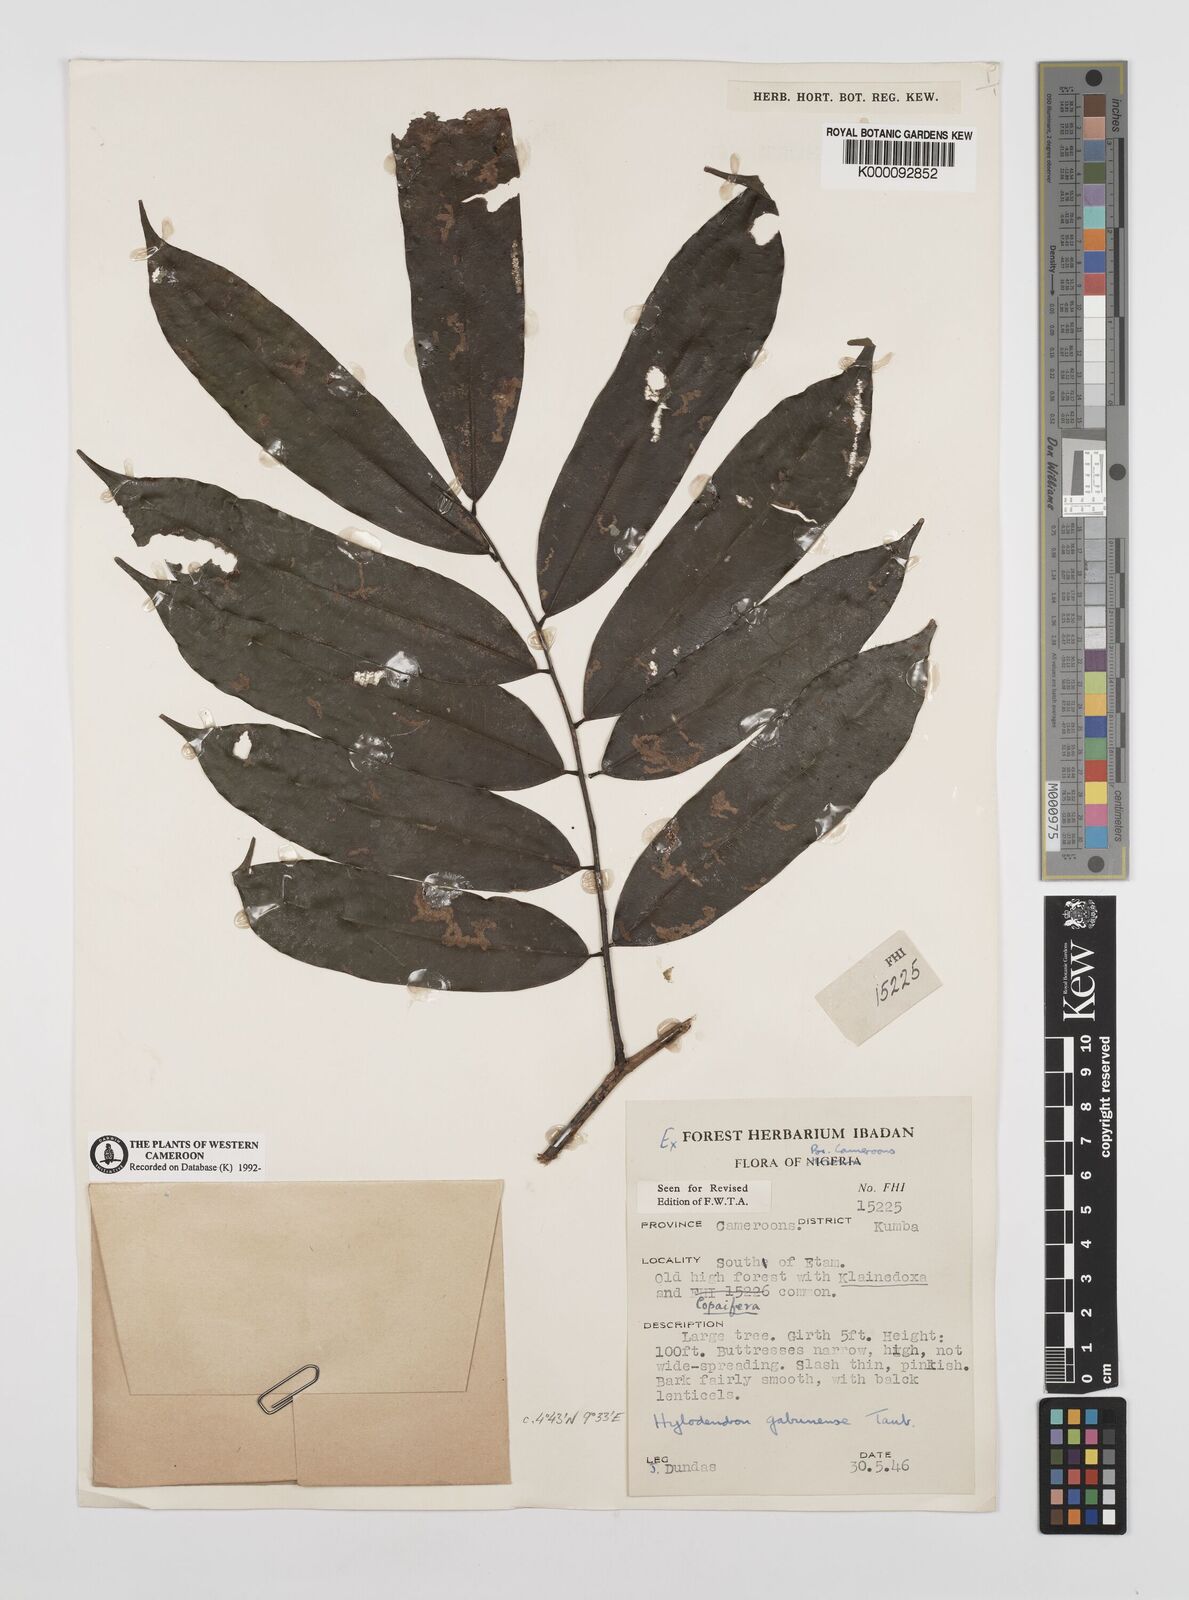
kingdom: Plantae
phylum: Tracheophyta
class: Magnoliopsida
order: Fabales
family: Fabaceae
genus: Hylodendron
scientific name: Hylodendron gabunense
